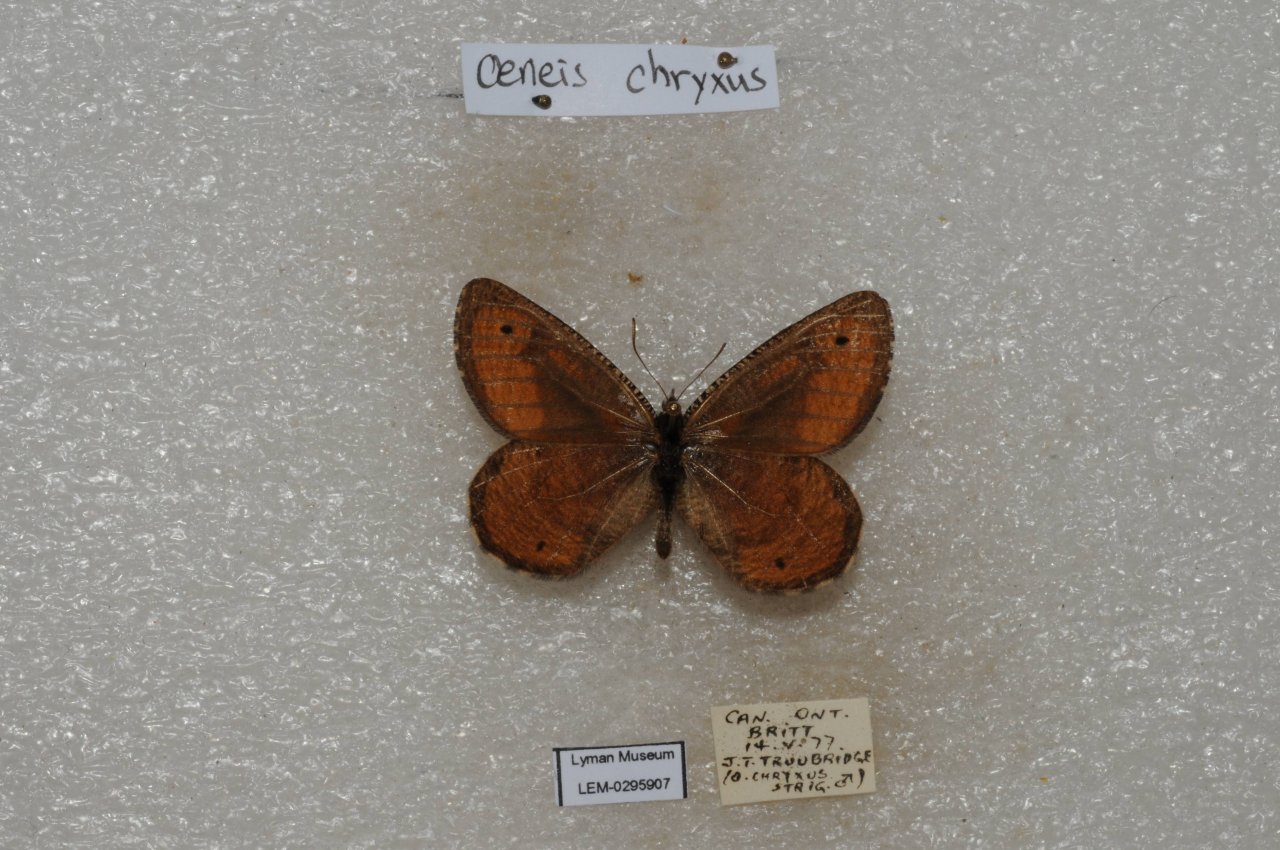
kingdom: Animalia
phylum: Arthropoda
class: Insecta
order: Lepidoptera
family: Nymphalidae
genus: Oeneis
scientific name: Oeneis chryxus
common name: Chryxus Arctic
